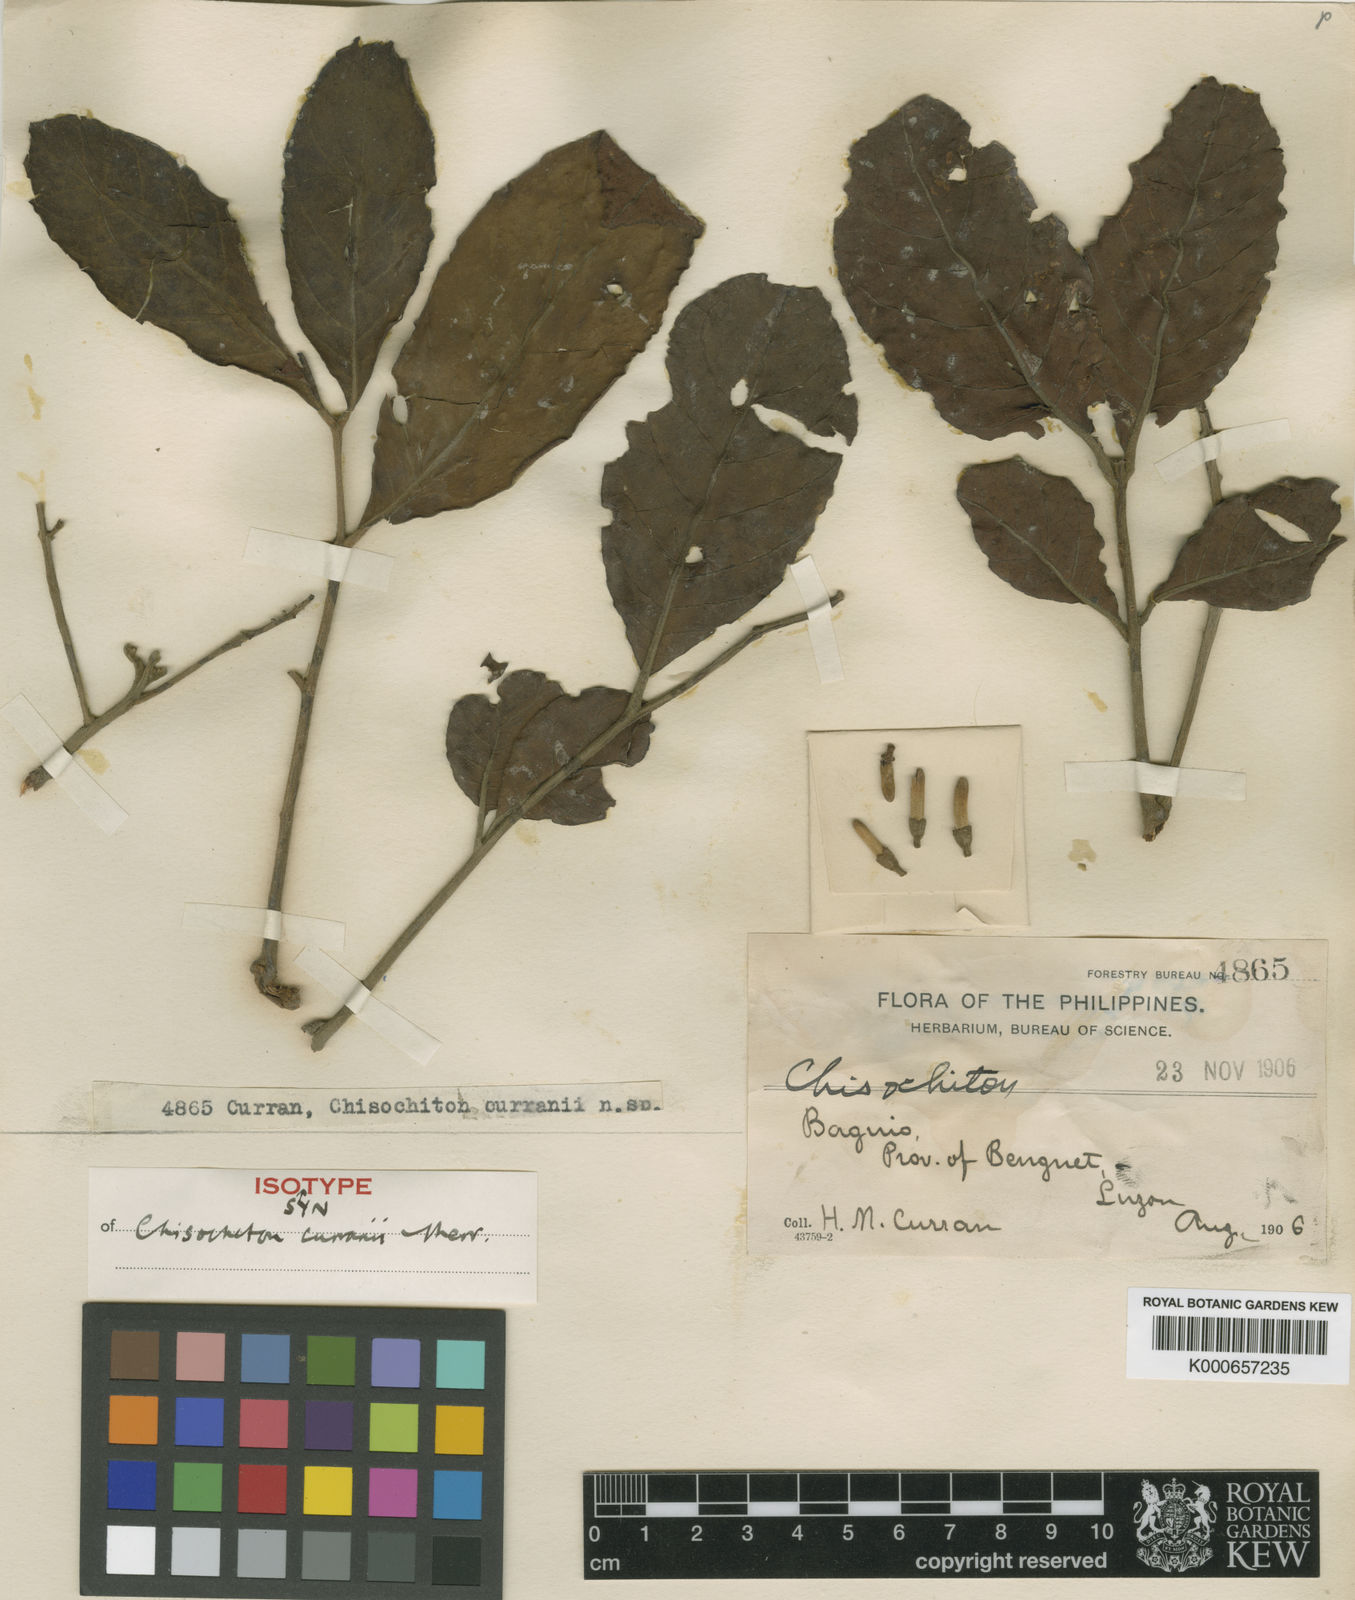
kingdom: Plantae
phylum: Tracheophyta
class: Magnoliopsida
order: Sapindales
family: Meliaceae
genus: Chisocheton
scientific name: Chisocheton curranii
